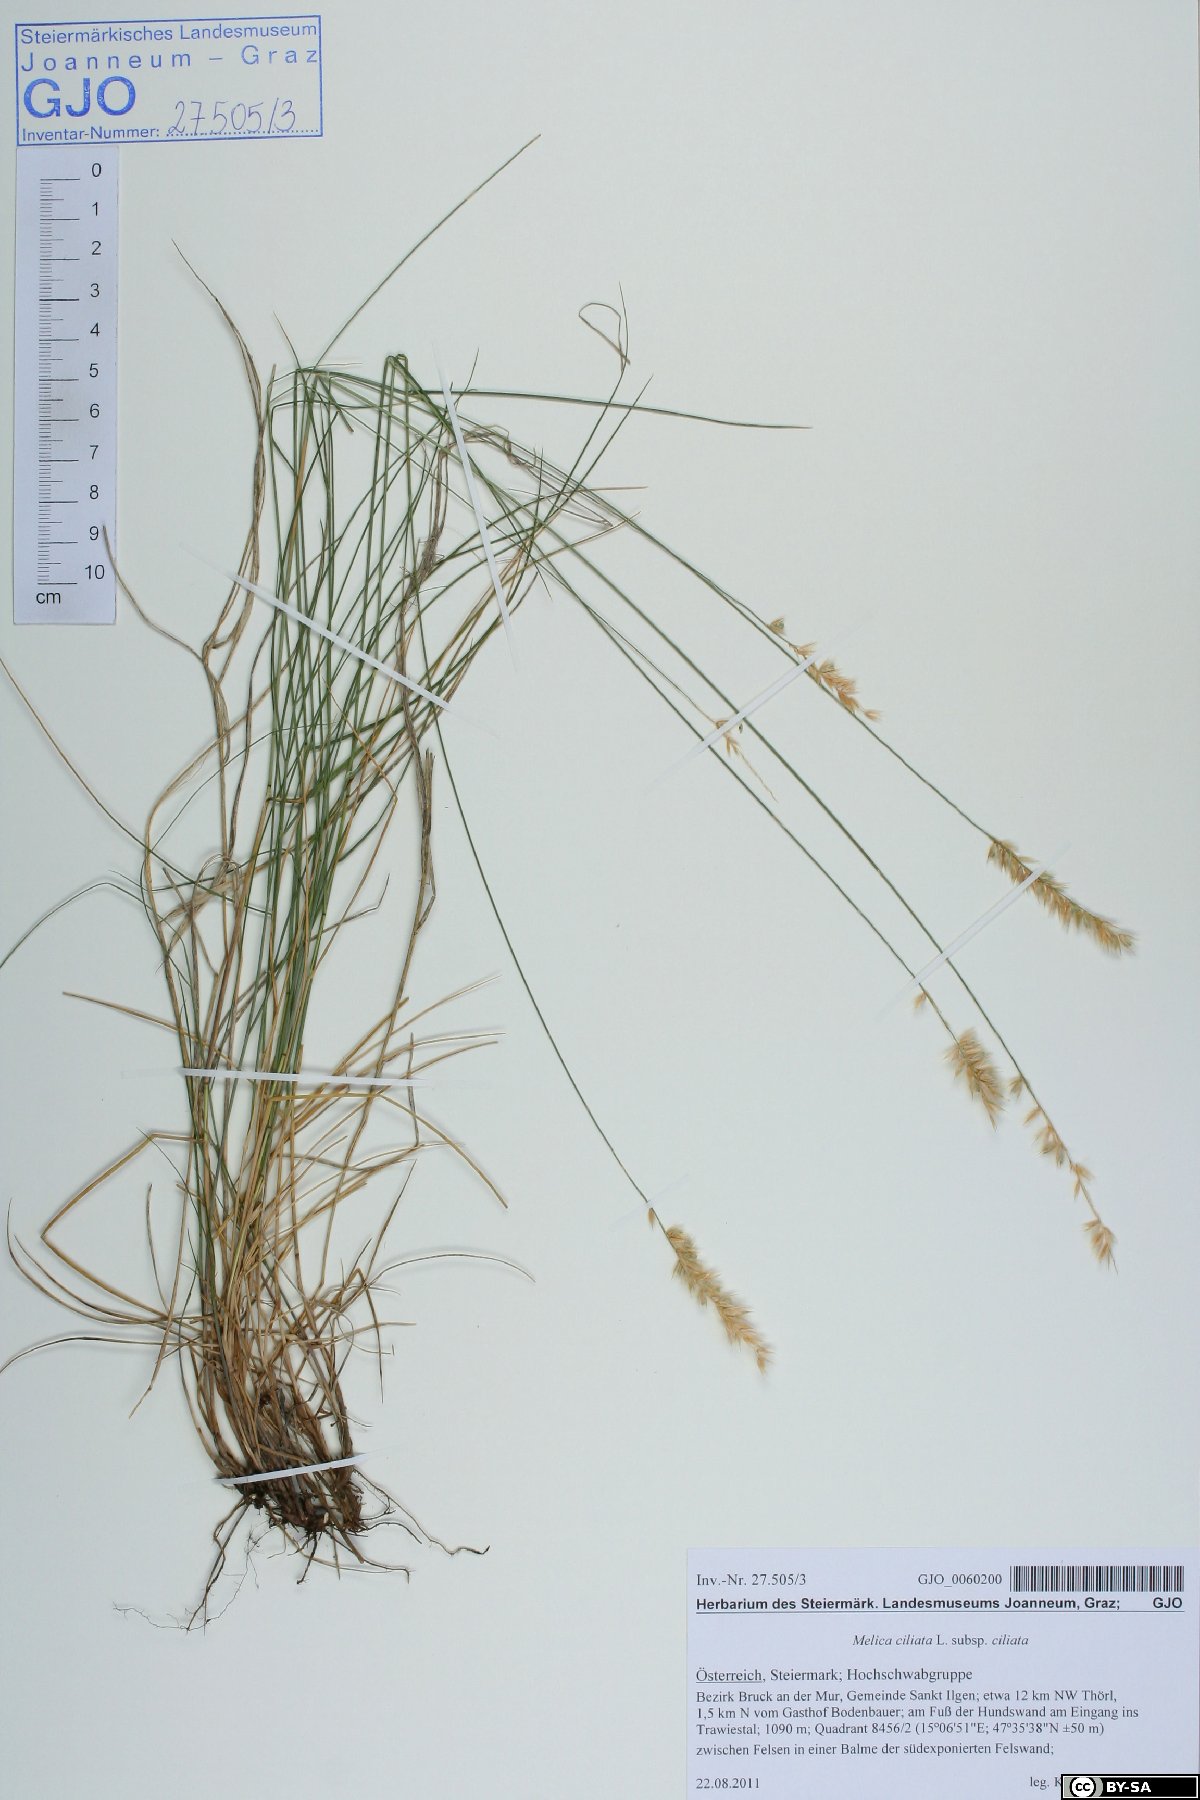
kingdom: Plantae
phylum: Tracheophyta
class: Liliopsida
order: Poales
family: Poaceae
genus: Melica
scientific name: Melica ciliata
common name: Hairy melicgrass
